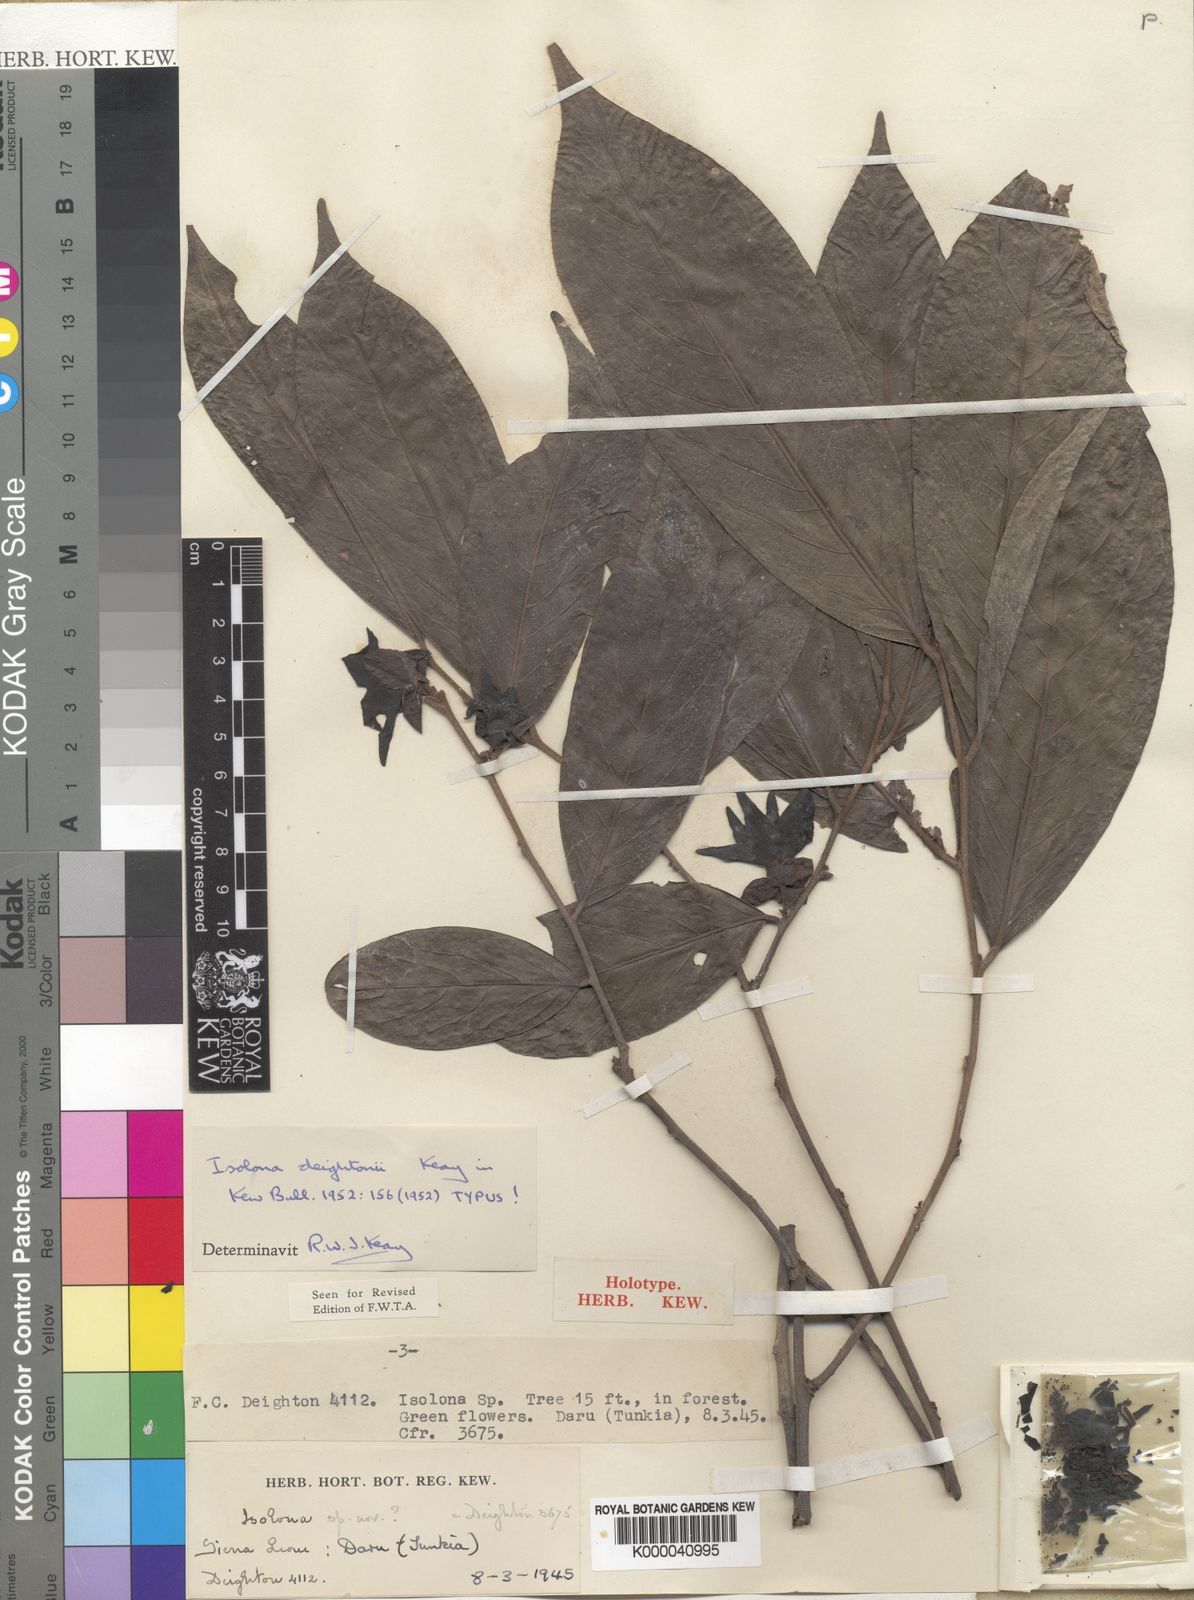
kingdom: Plantae
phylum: Tracheophyta
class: Magnoliopsida
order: Magnoliales
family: Annonaceae
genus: Isolona
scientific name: Isolona deightonii
